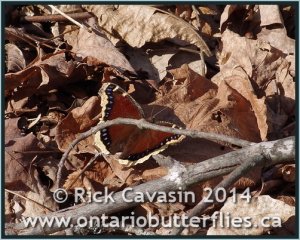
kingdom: Animalia
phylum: Arthropoda
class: Insecta
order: Lepidoptera
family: Nymphalidae
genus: Nymphalis
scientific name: Nymphalis antiopa
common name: Mourning Cloak
